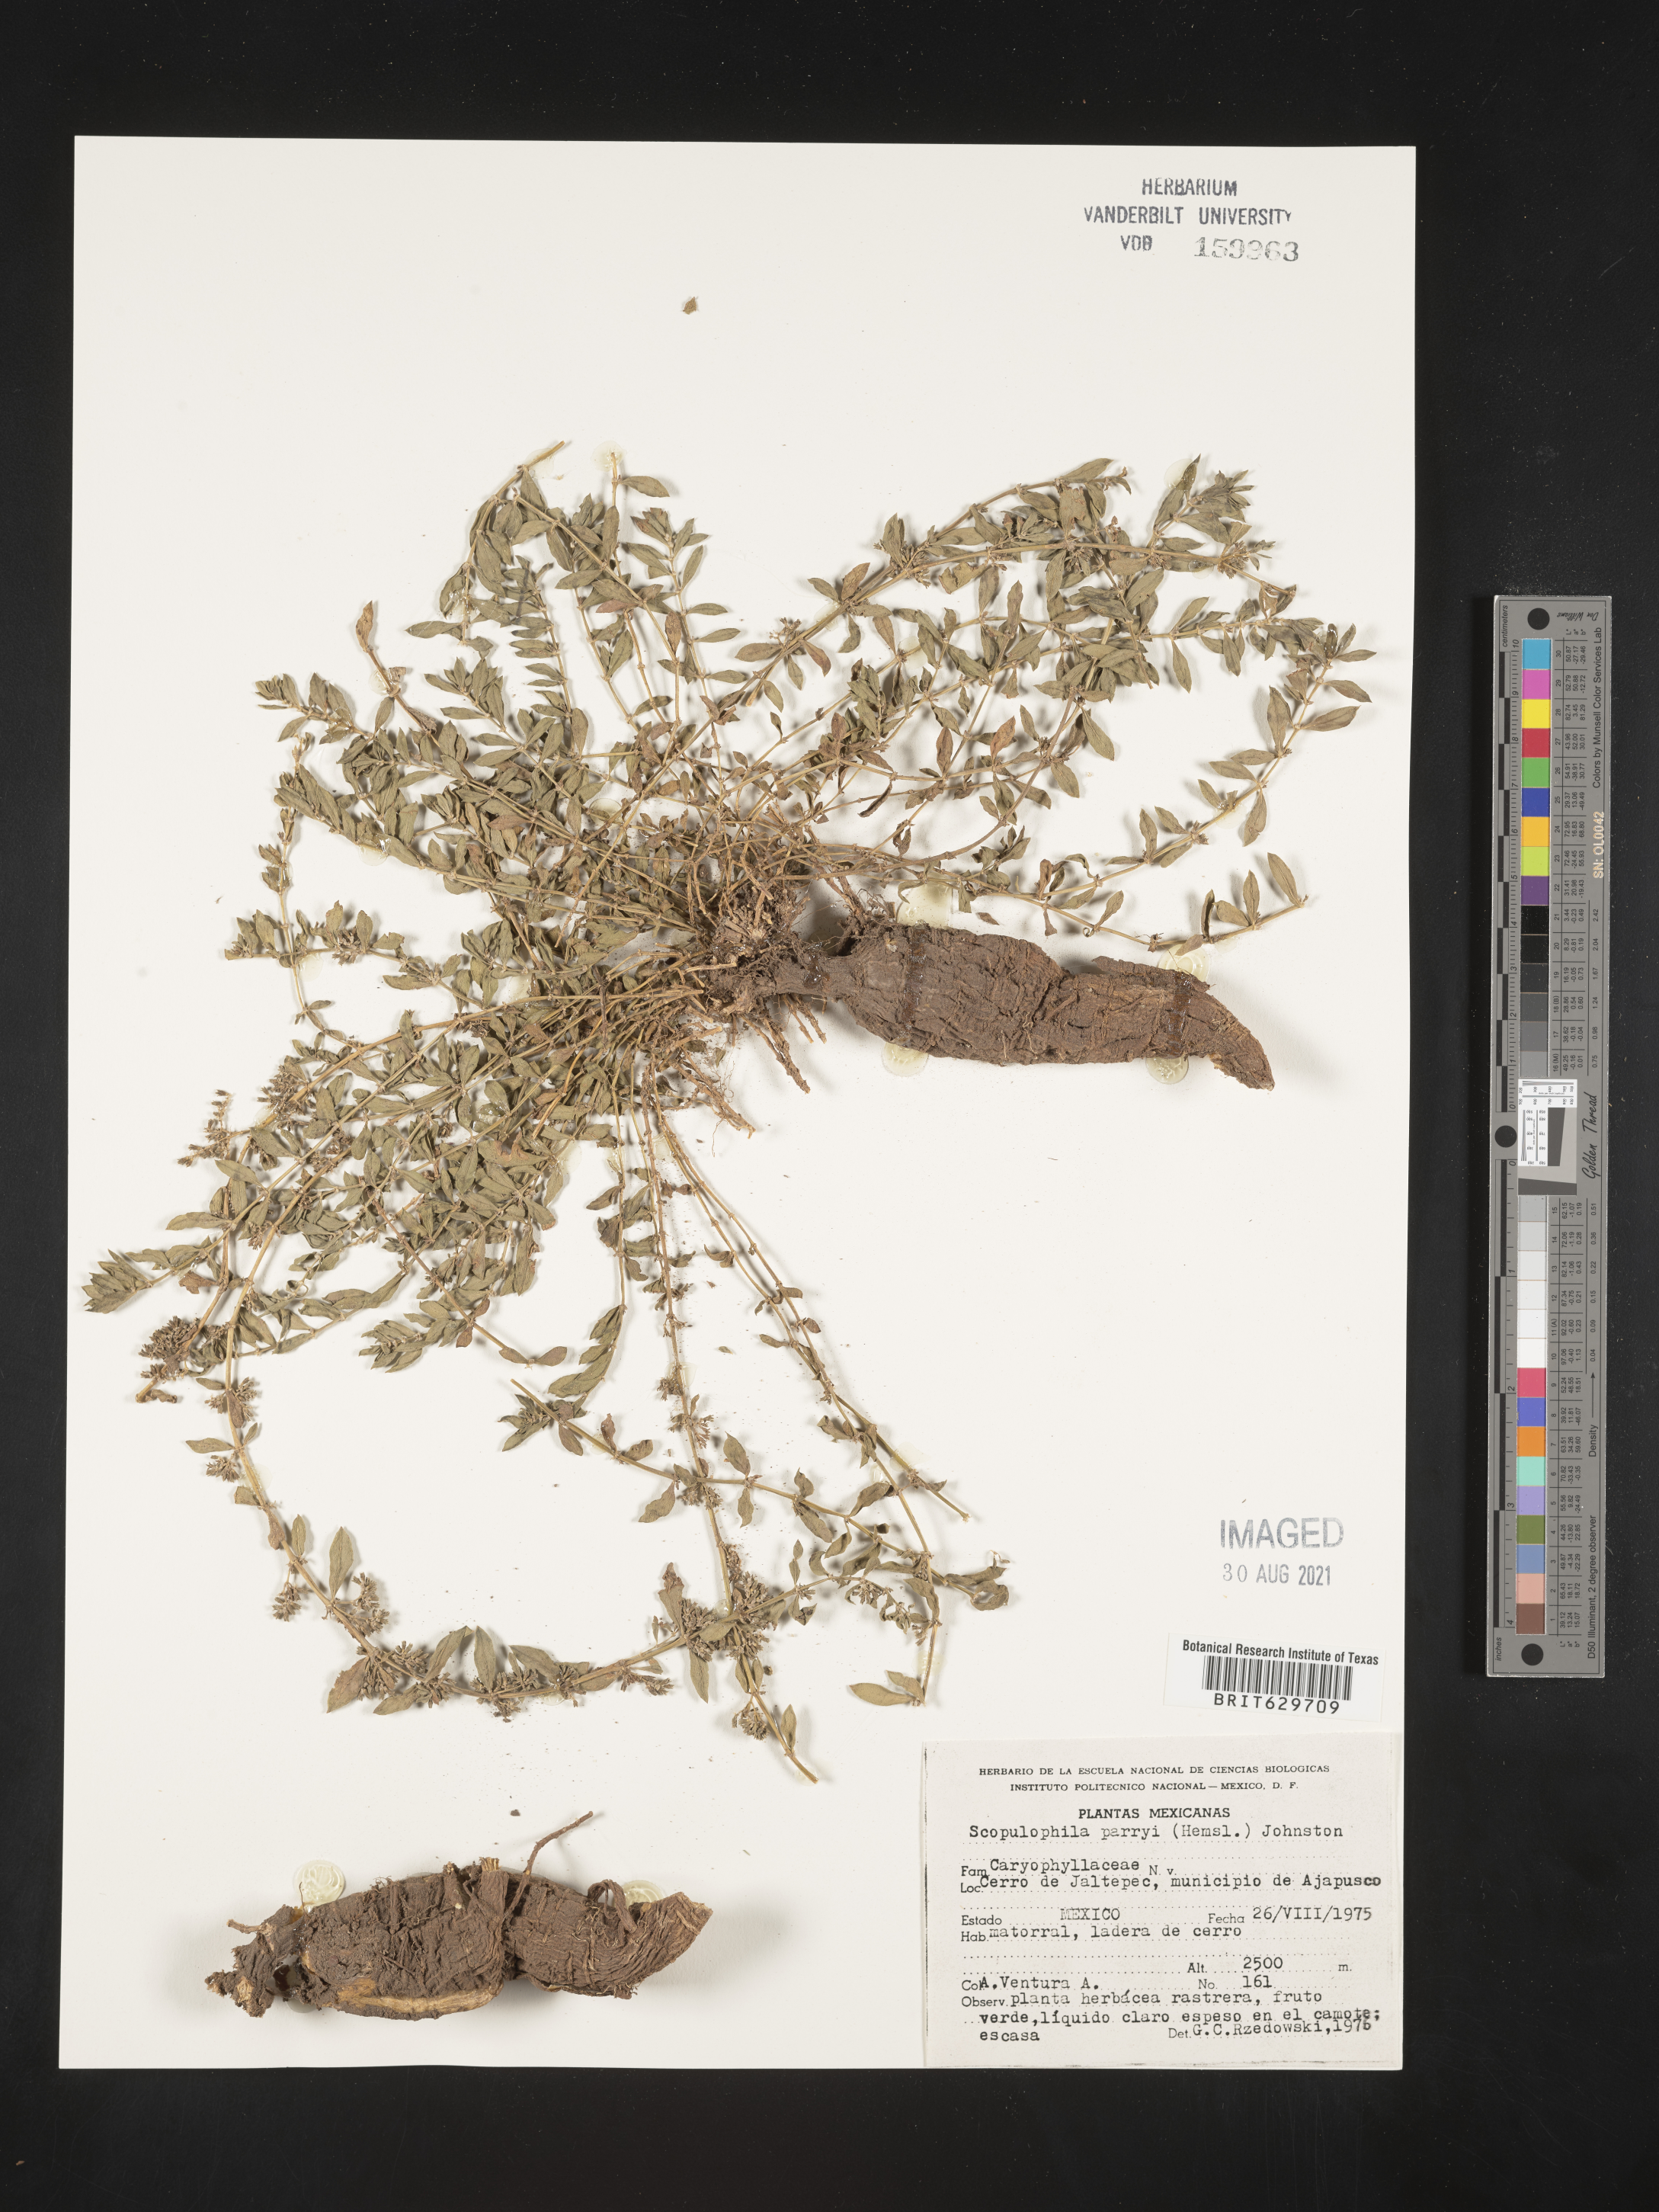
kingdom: Plantae
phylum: Tracheophyta
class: Magnoliopsida
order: Caryophyllales
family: Caryophyllaceae
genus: Scopulophila
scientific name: Scopulophila
